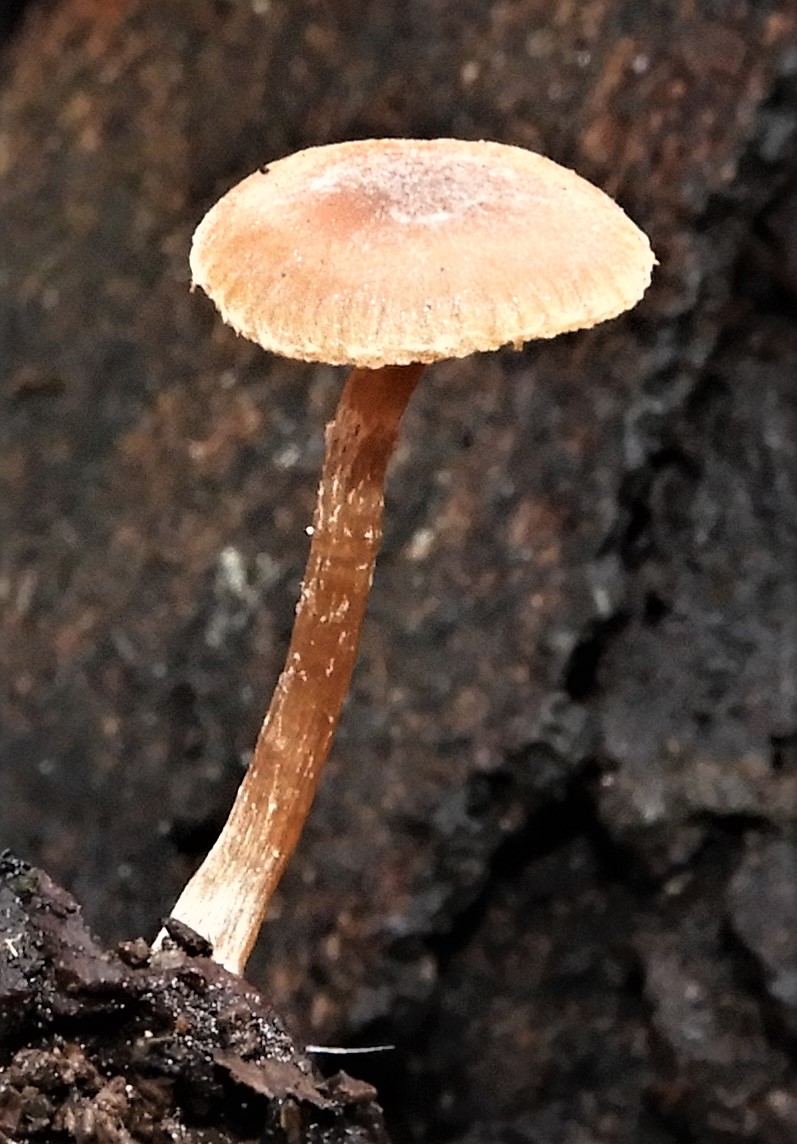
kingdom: Fungi
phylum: Basidiomycota
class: Agaricomycetes
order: Agaricales
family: Tubariaceae
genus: Tubaria
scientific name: Tubaria furfuracea
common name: kliddet fnughat
